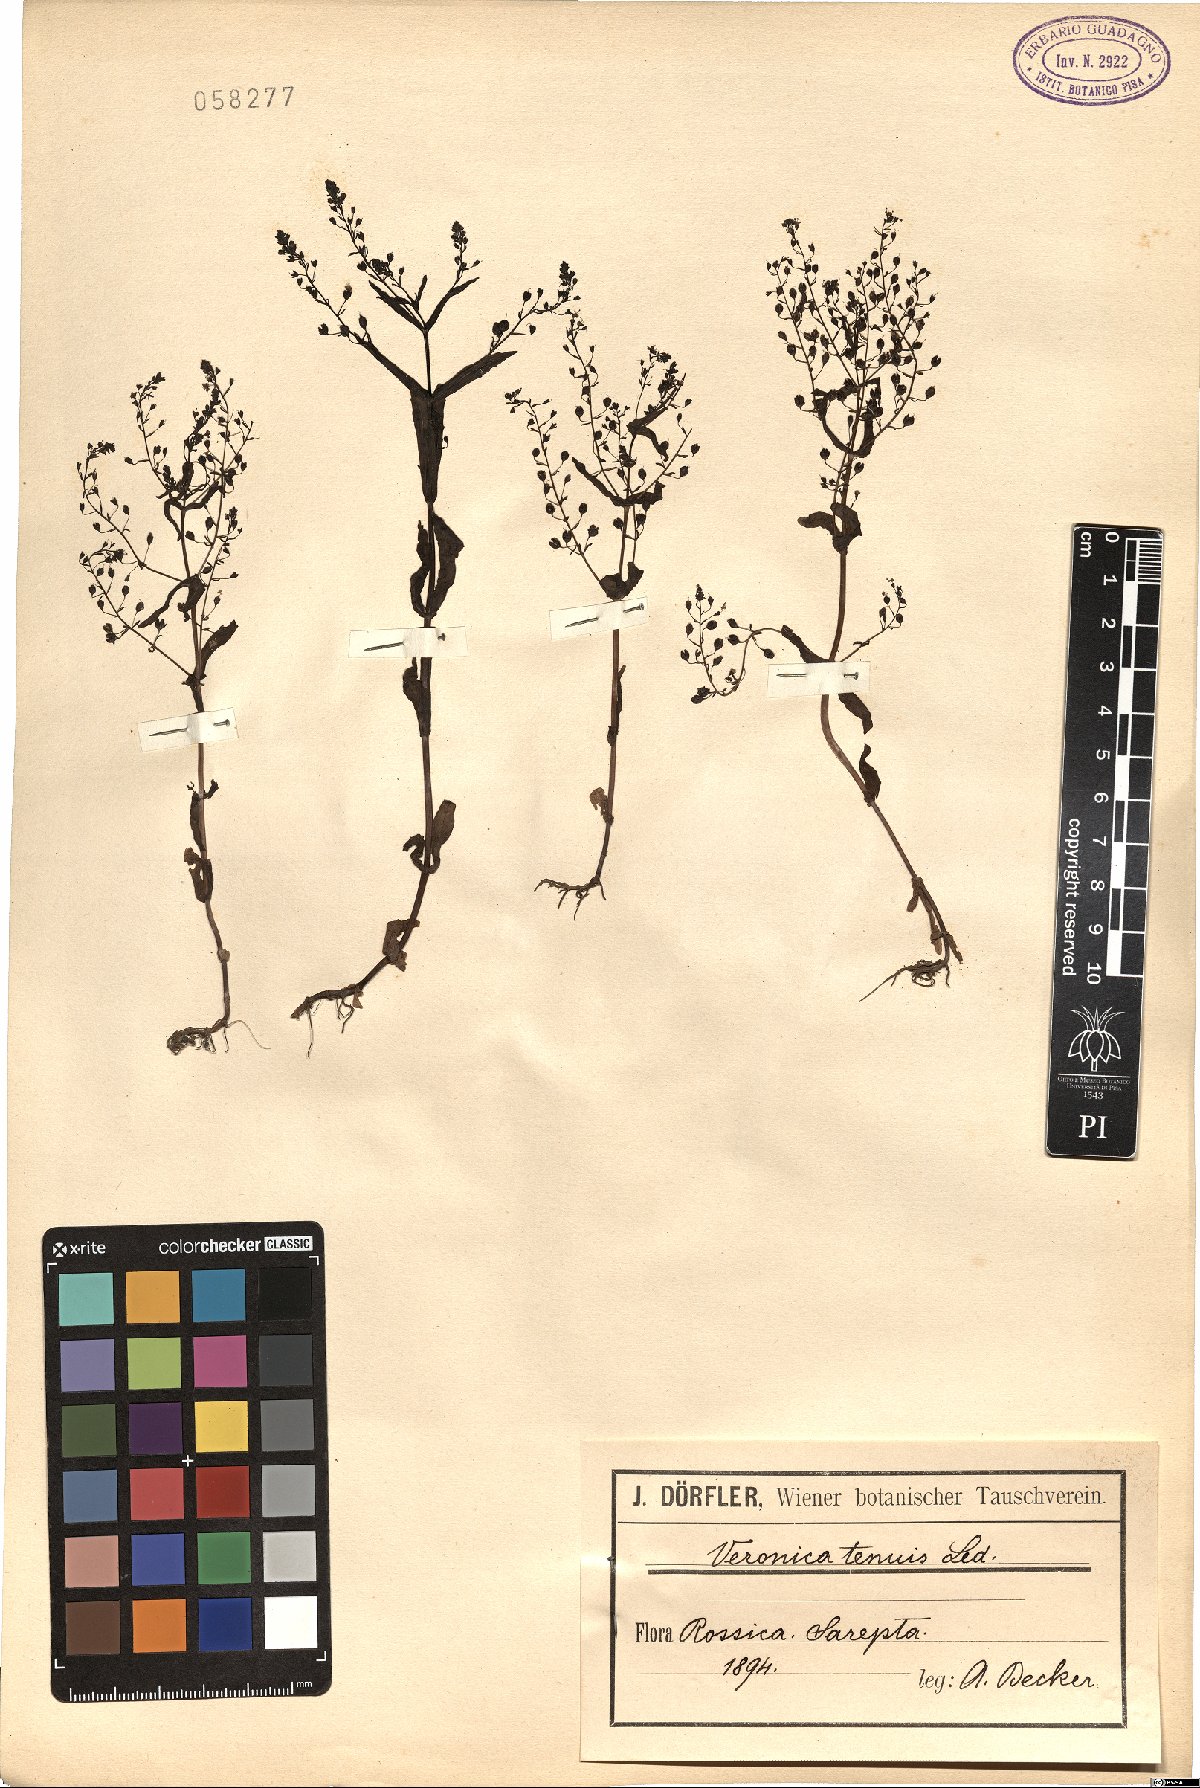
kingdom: Plantae
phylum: Tracheophyta
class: Magnoliopsida
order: Lamiales
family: Plantaginaceae
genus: Veronica
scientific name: Veronica anagalloides
